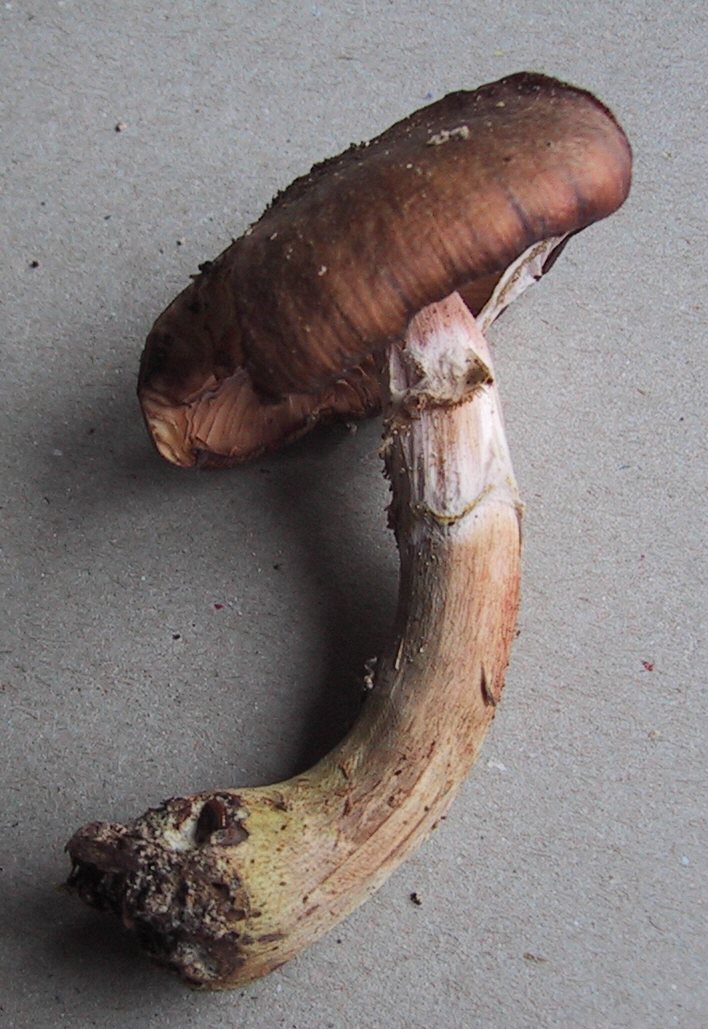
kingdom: Fungi
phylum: Basidiomycota
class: Agaricomycetes
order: Agaricales
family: Physalacriaceae
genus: Armillaria
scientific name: Armillaria lutea
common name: køllestokket honningsvamp
